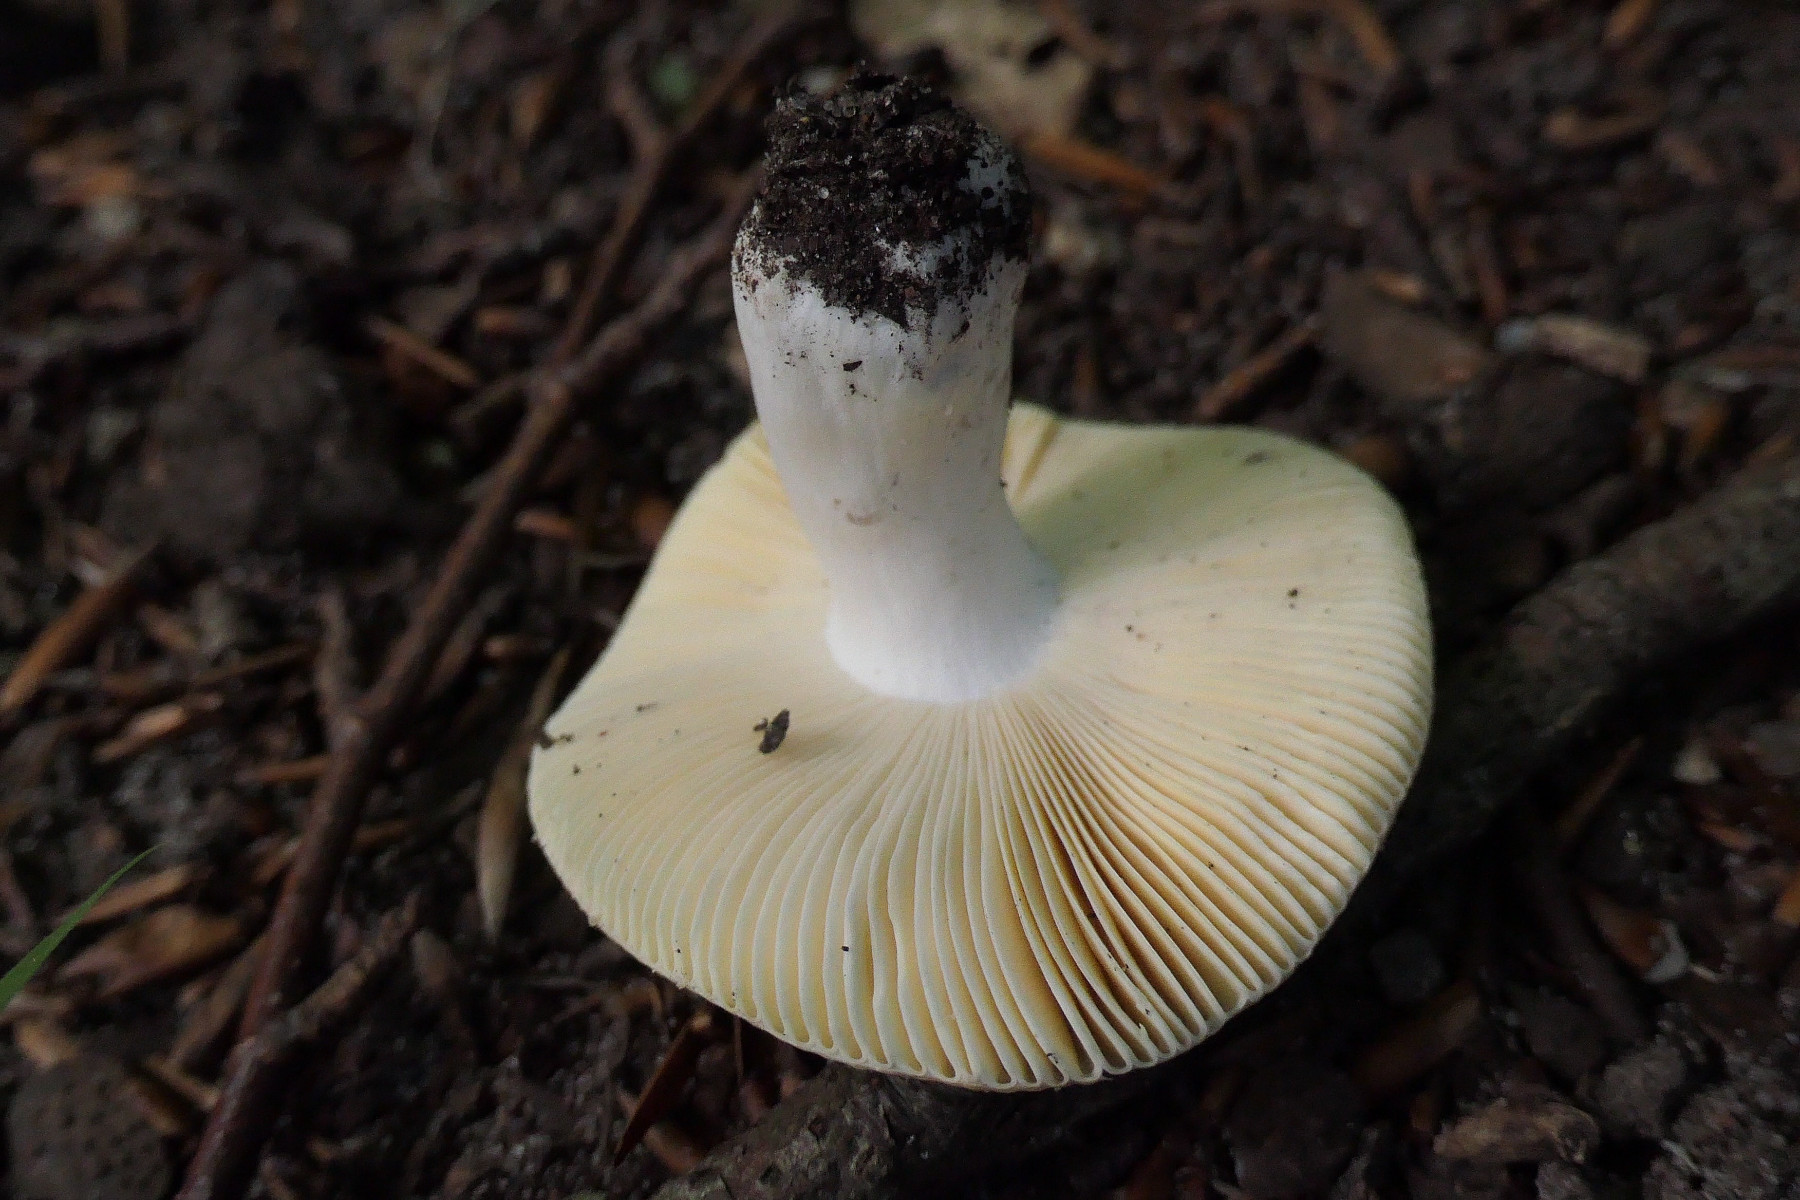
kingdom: Fungi
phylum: Basidiomycota
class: Agaricomycetes
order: Russulales
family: Russulaceae
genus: Russula
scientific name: Russula cuprea
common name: kanel-skørhat
